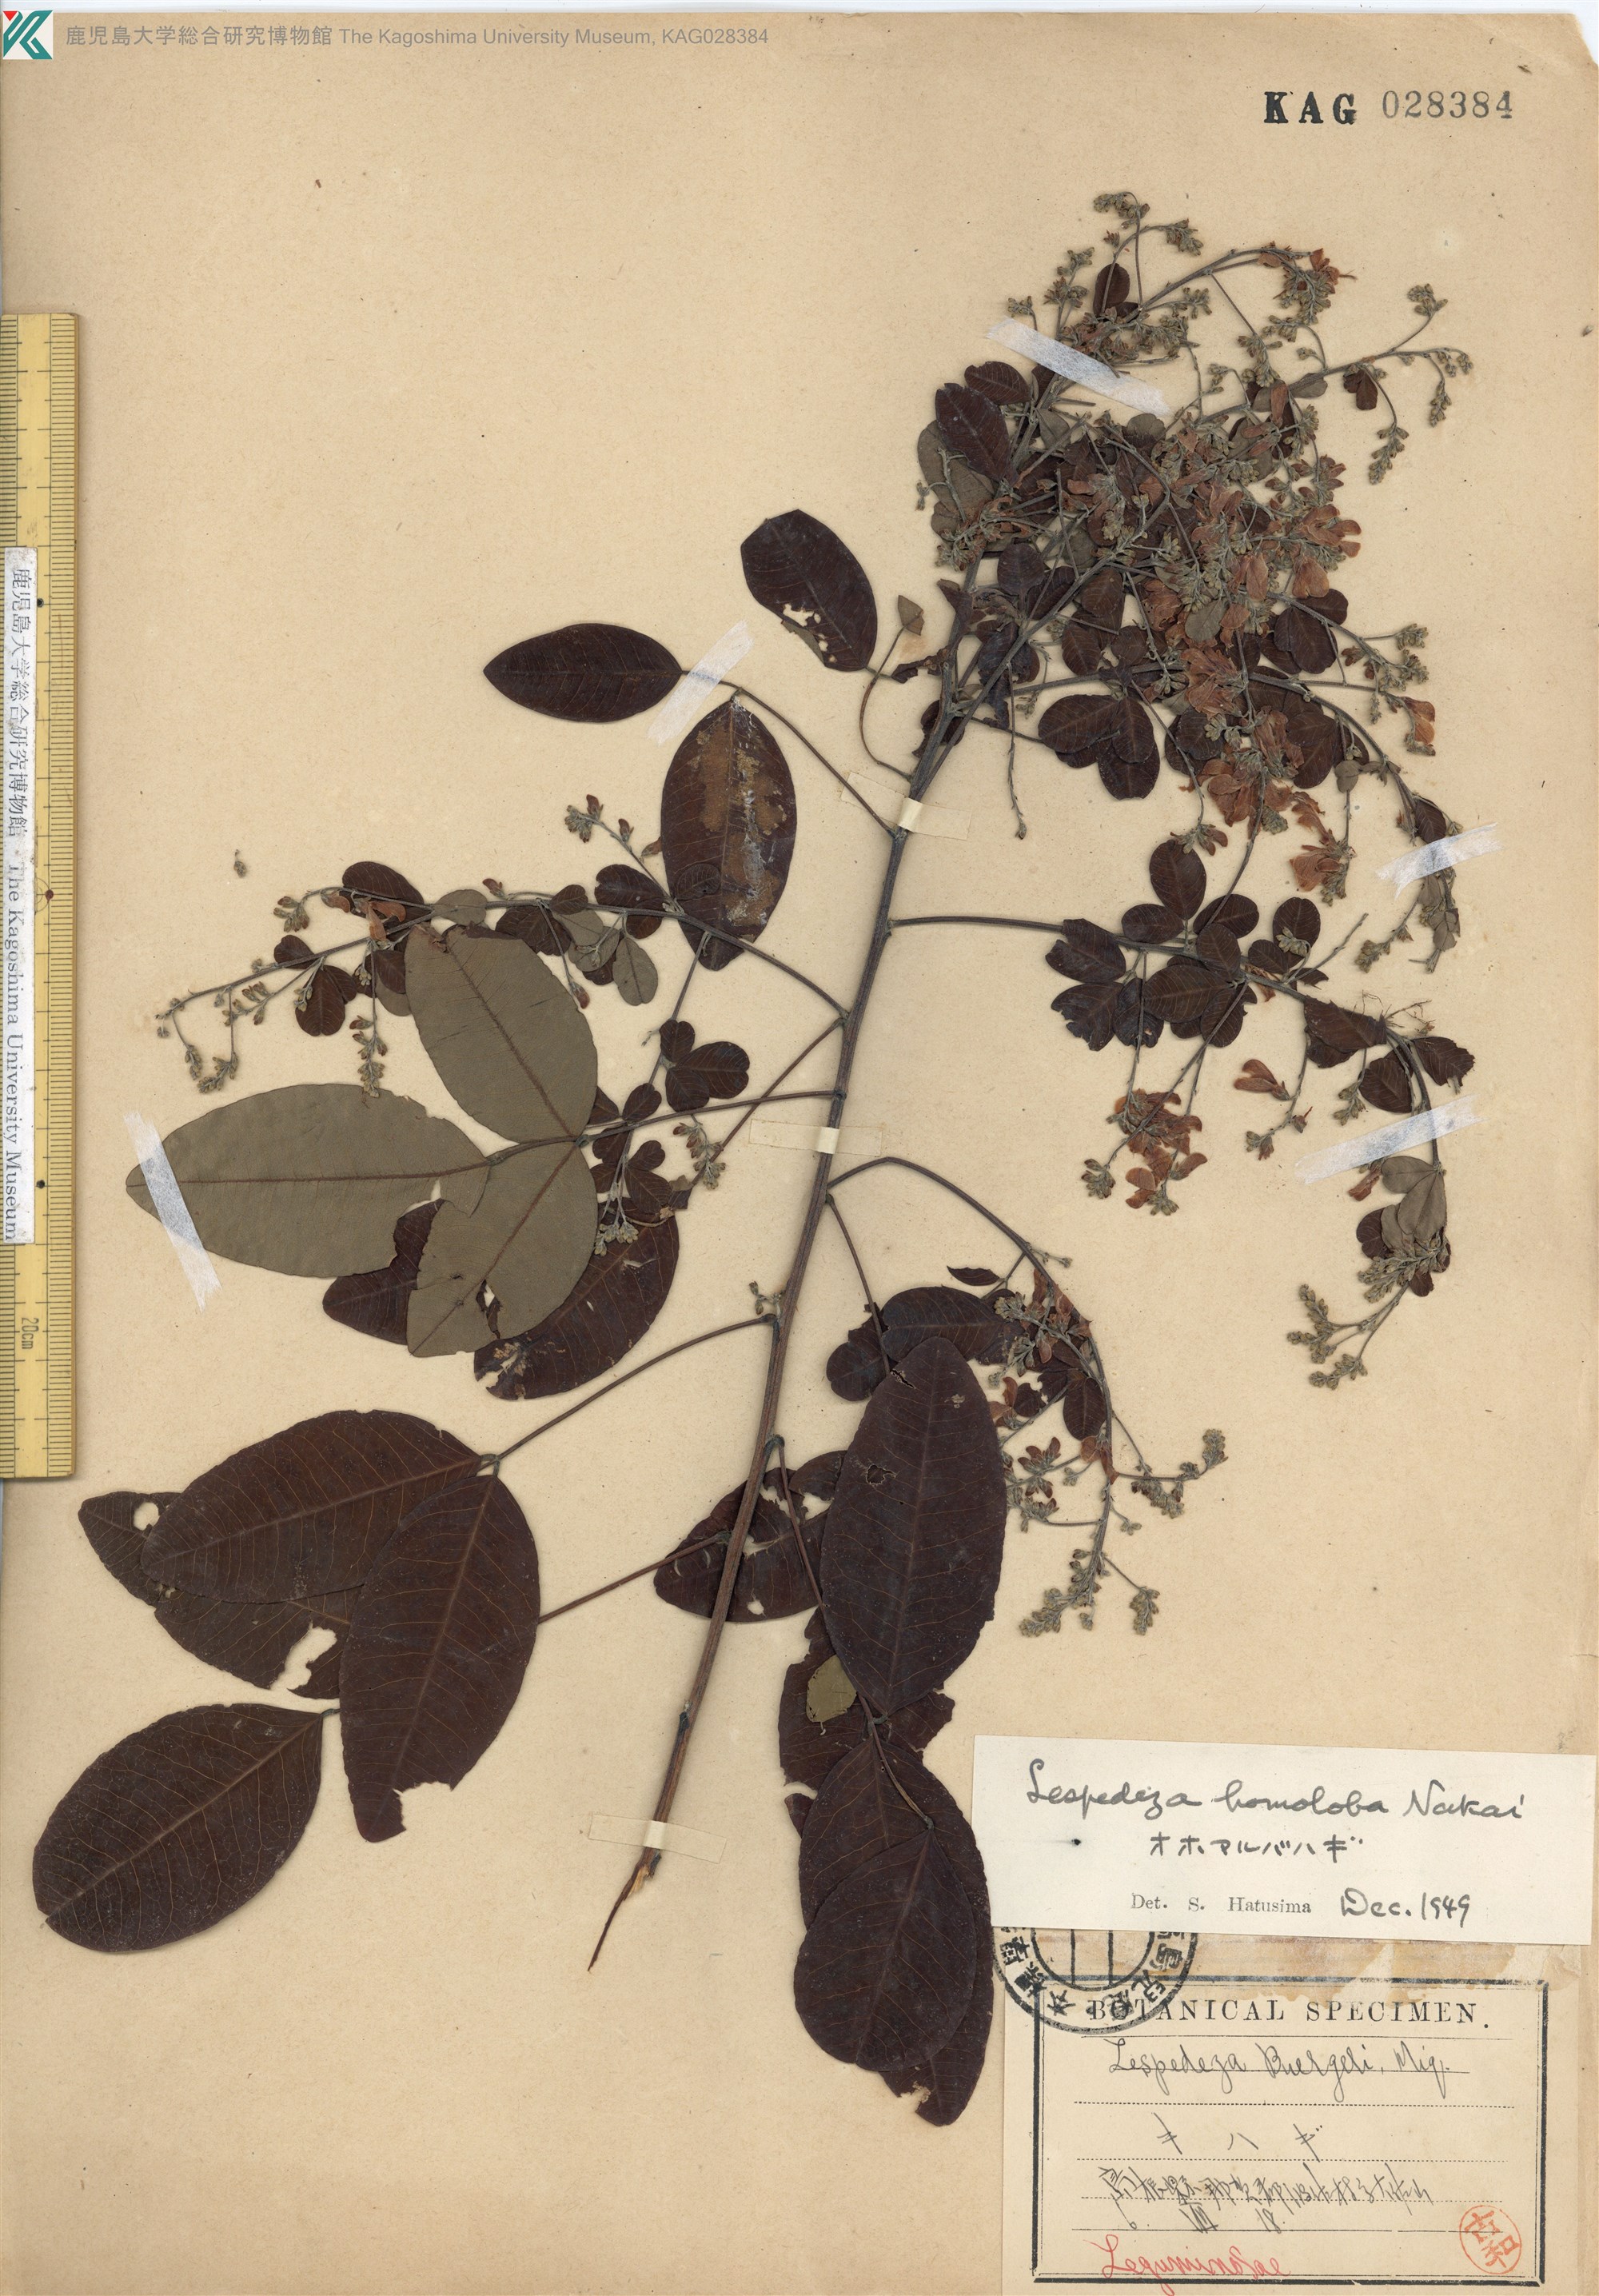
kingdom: Plantae
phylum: Tracheophyta
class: Magnoliopsida
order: Fabales
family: Fabaceae
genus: Lespedeza
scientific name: Lespedeza homoloba
